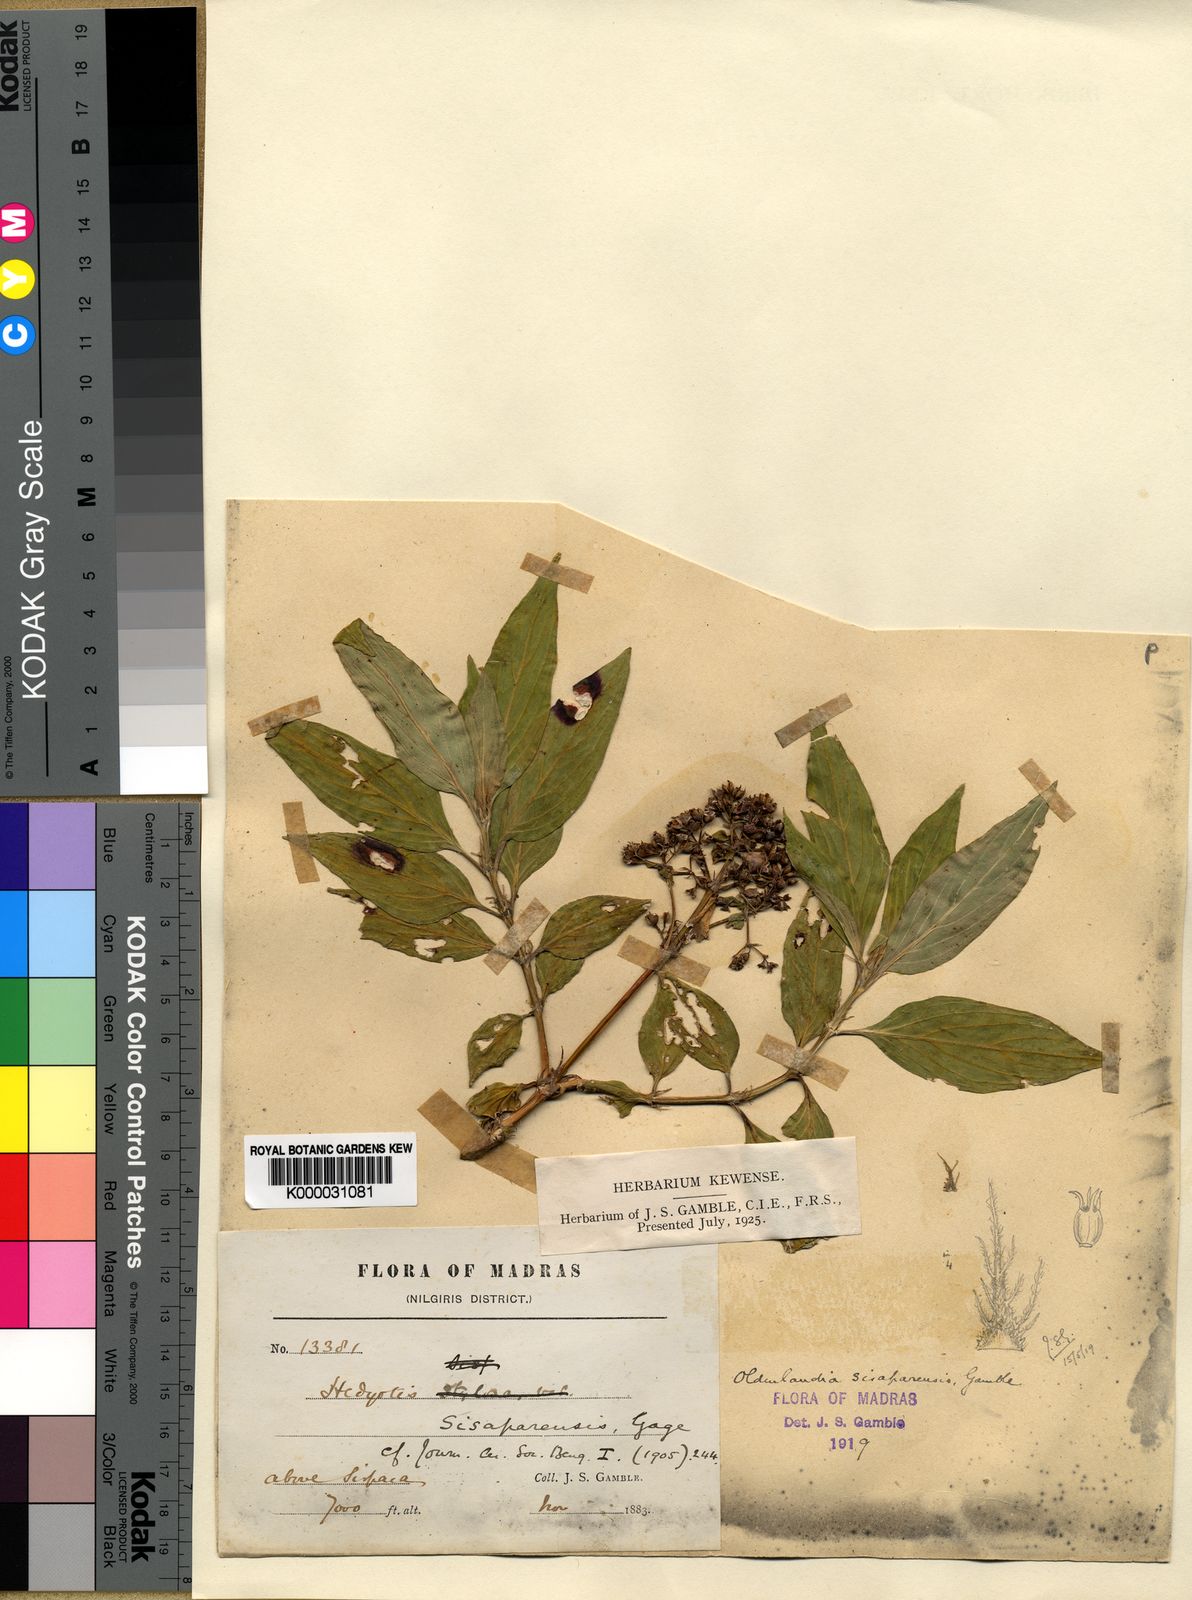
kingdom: Plantae
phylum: Tracheophyta
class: Magnoliopsida
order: Gentianales
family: Rubiaceae
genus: Hedyotis
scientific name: Hedyotis leschenaultiana
